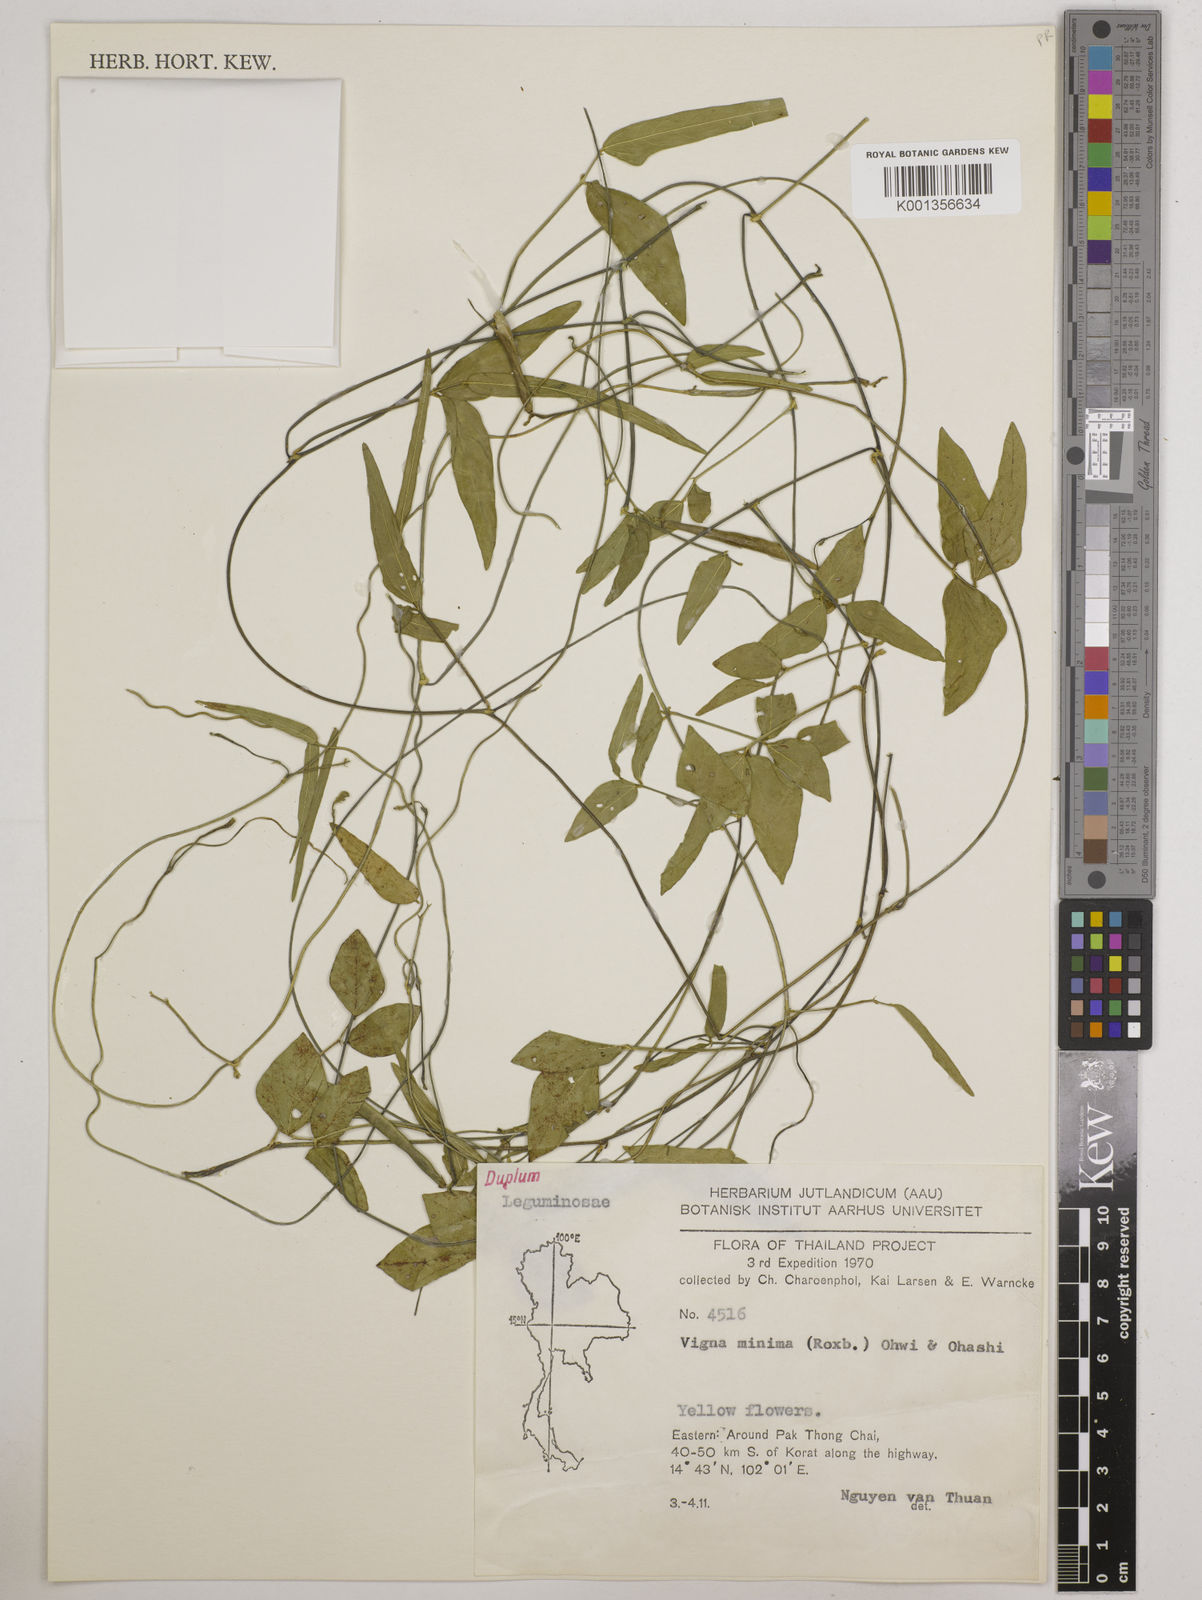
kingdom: Plantae
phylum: Tracheophyta
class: Magnoliopsida
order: Fabales
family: Fabaceae
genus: Vigna
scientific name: Vigna minima
